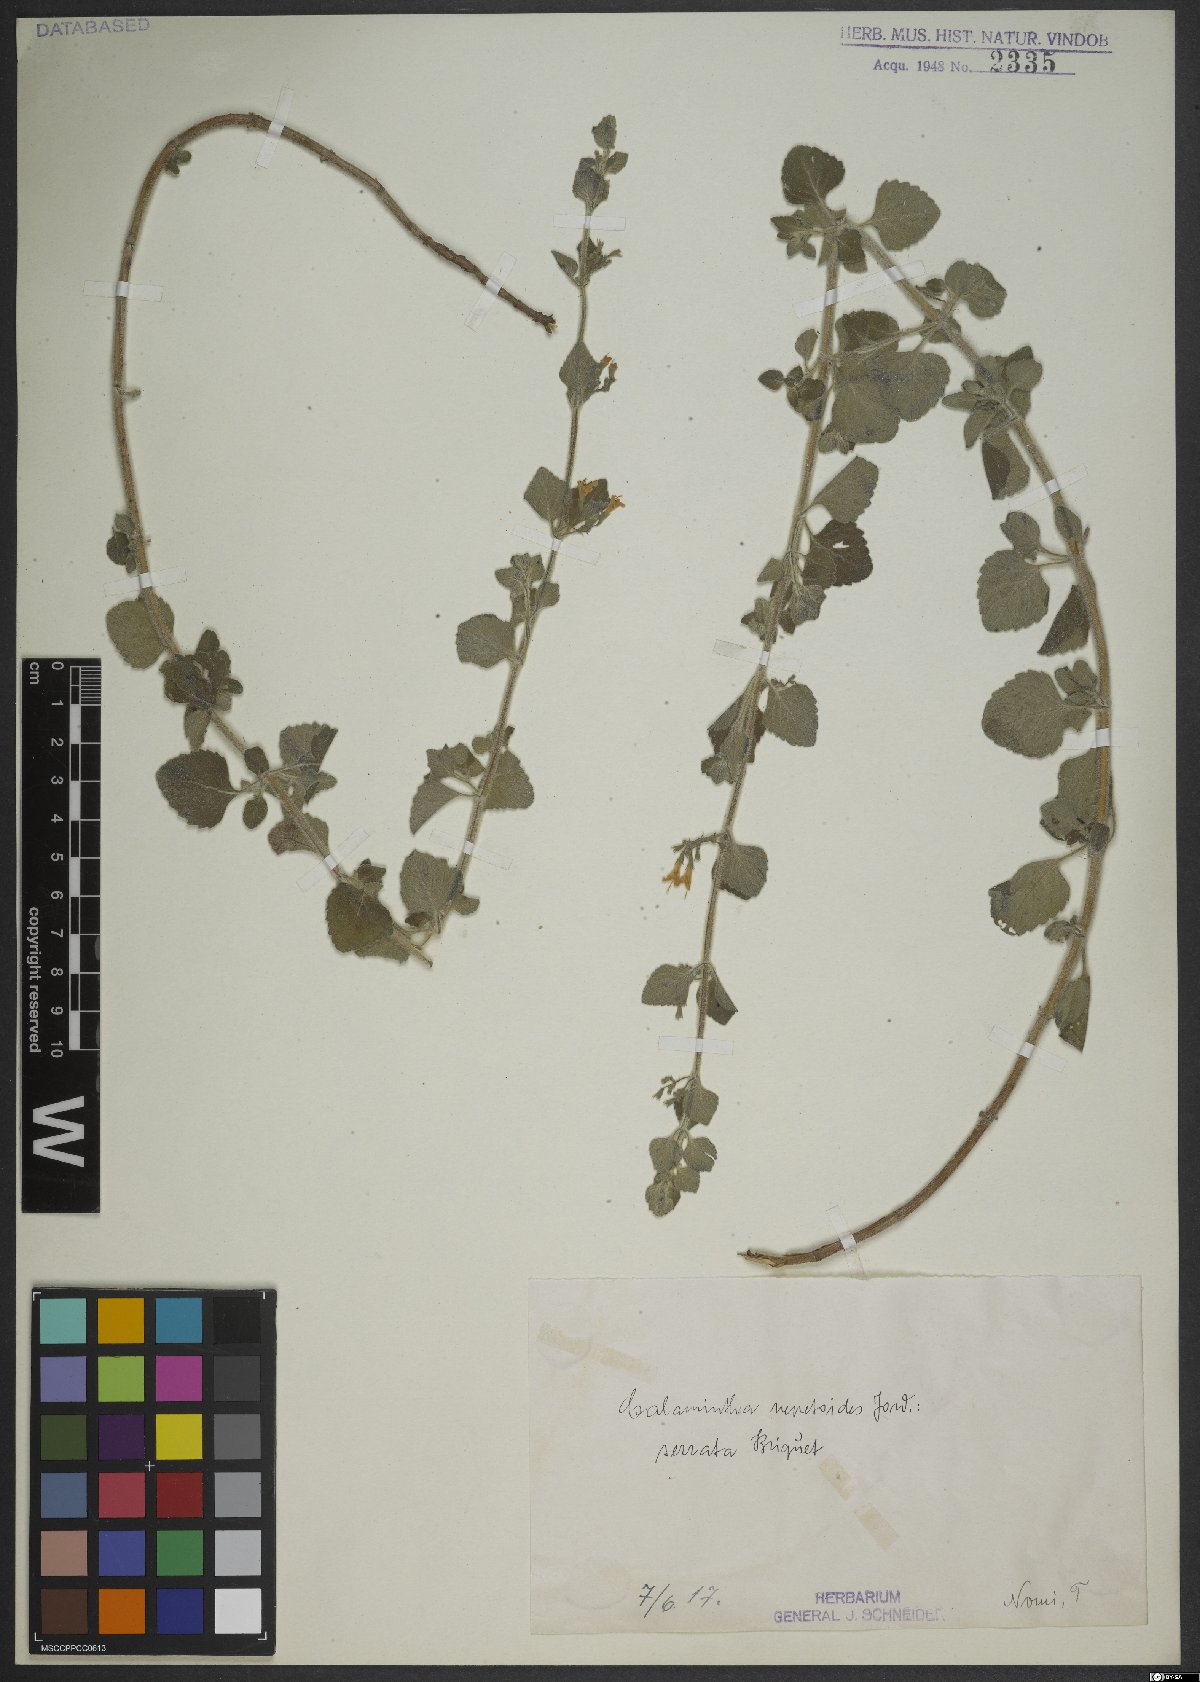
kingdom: Plantae
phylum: Tracheophyta
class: Magnoliopsida
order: Lamiales
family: Lamiaceae
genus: Clinopodium
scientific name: Clinopodium nepeta
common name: Lesser calamint
